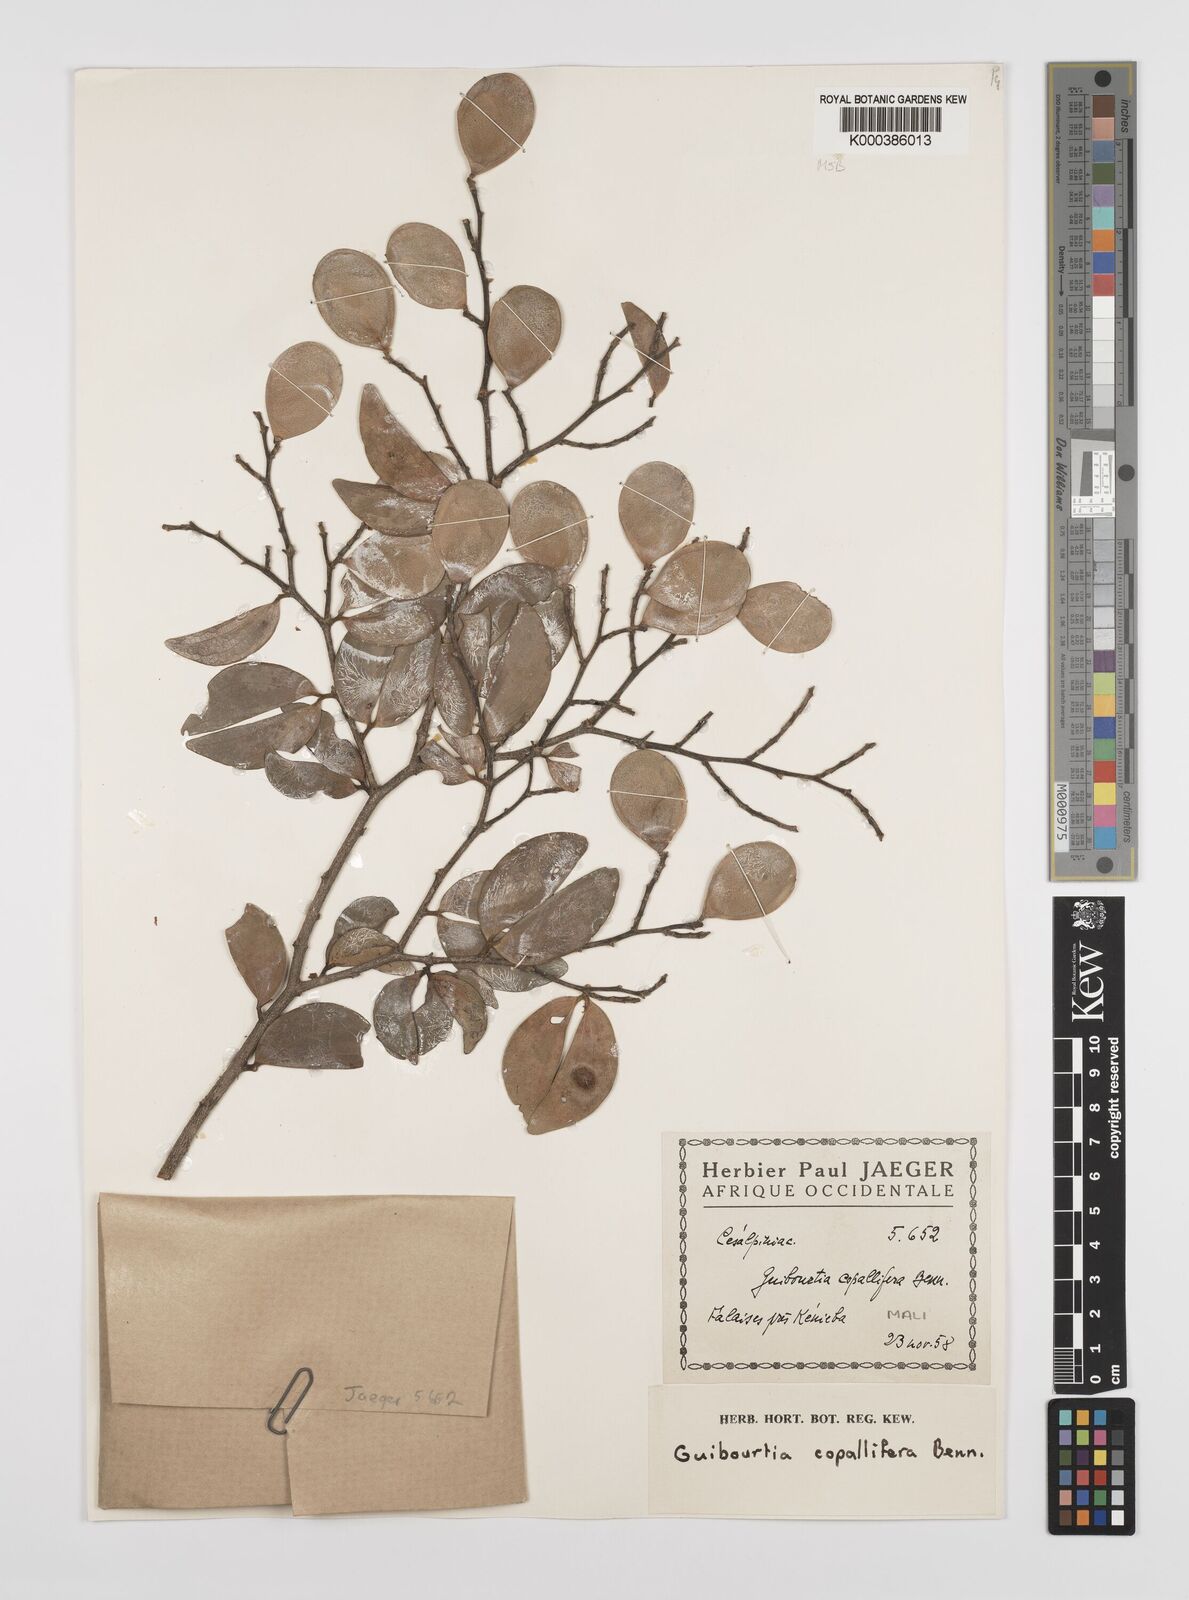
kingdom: Plantae
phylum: Tracheophyta
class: Magnoliopsida
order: Fabales
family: Fabaceae
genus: Guibourtia
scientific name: Guibourtia copallifera
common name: Kobo tree
